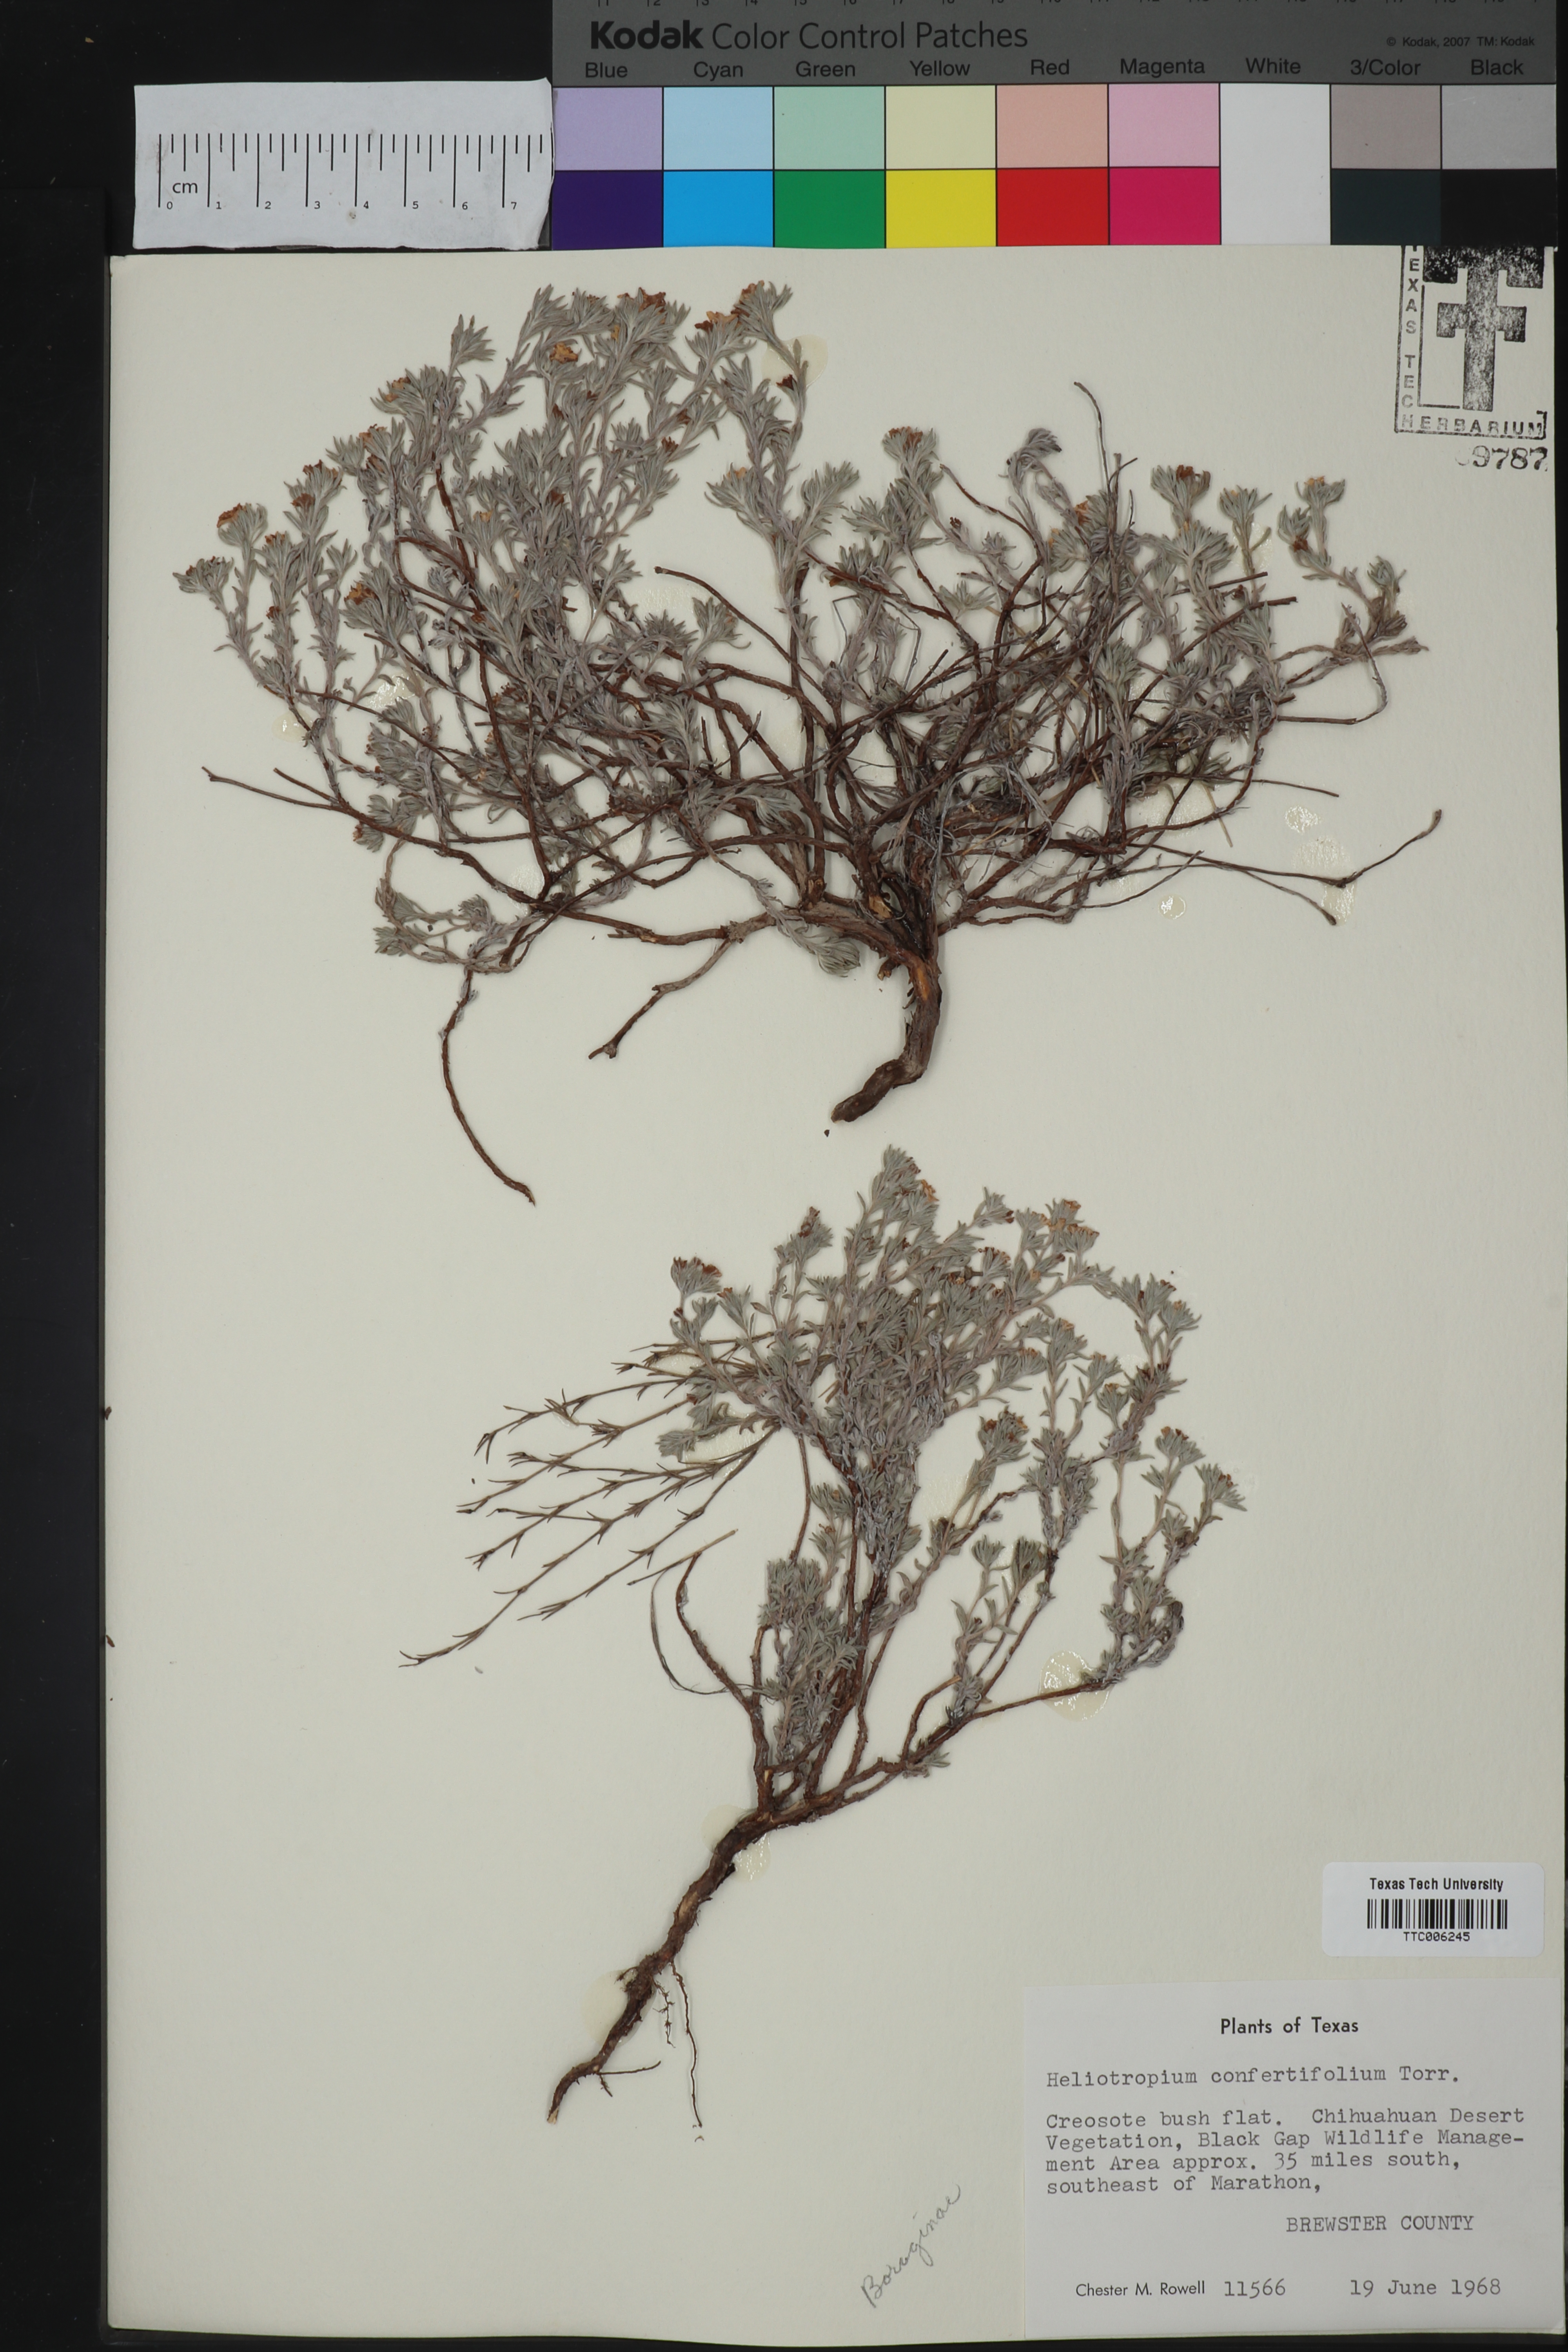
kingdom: Plantae
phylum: Tracheophyta
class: Magnoliopsida
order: Boraginales
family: Heliotropiaceae
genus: Euploca
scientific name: Euploca confertifolia
